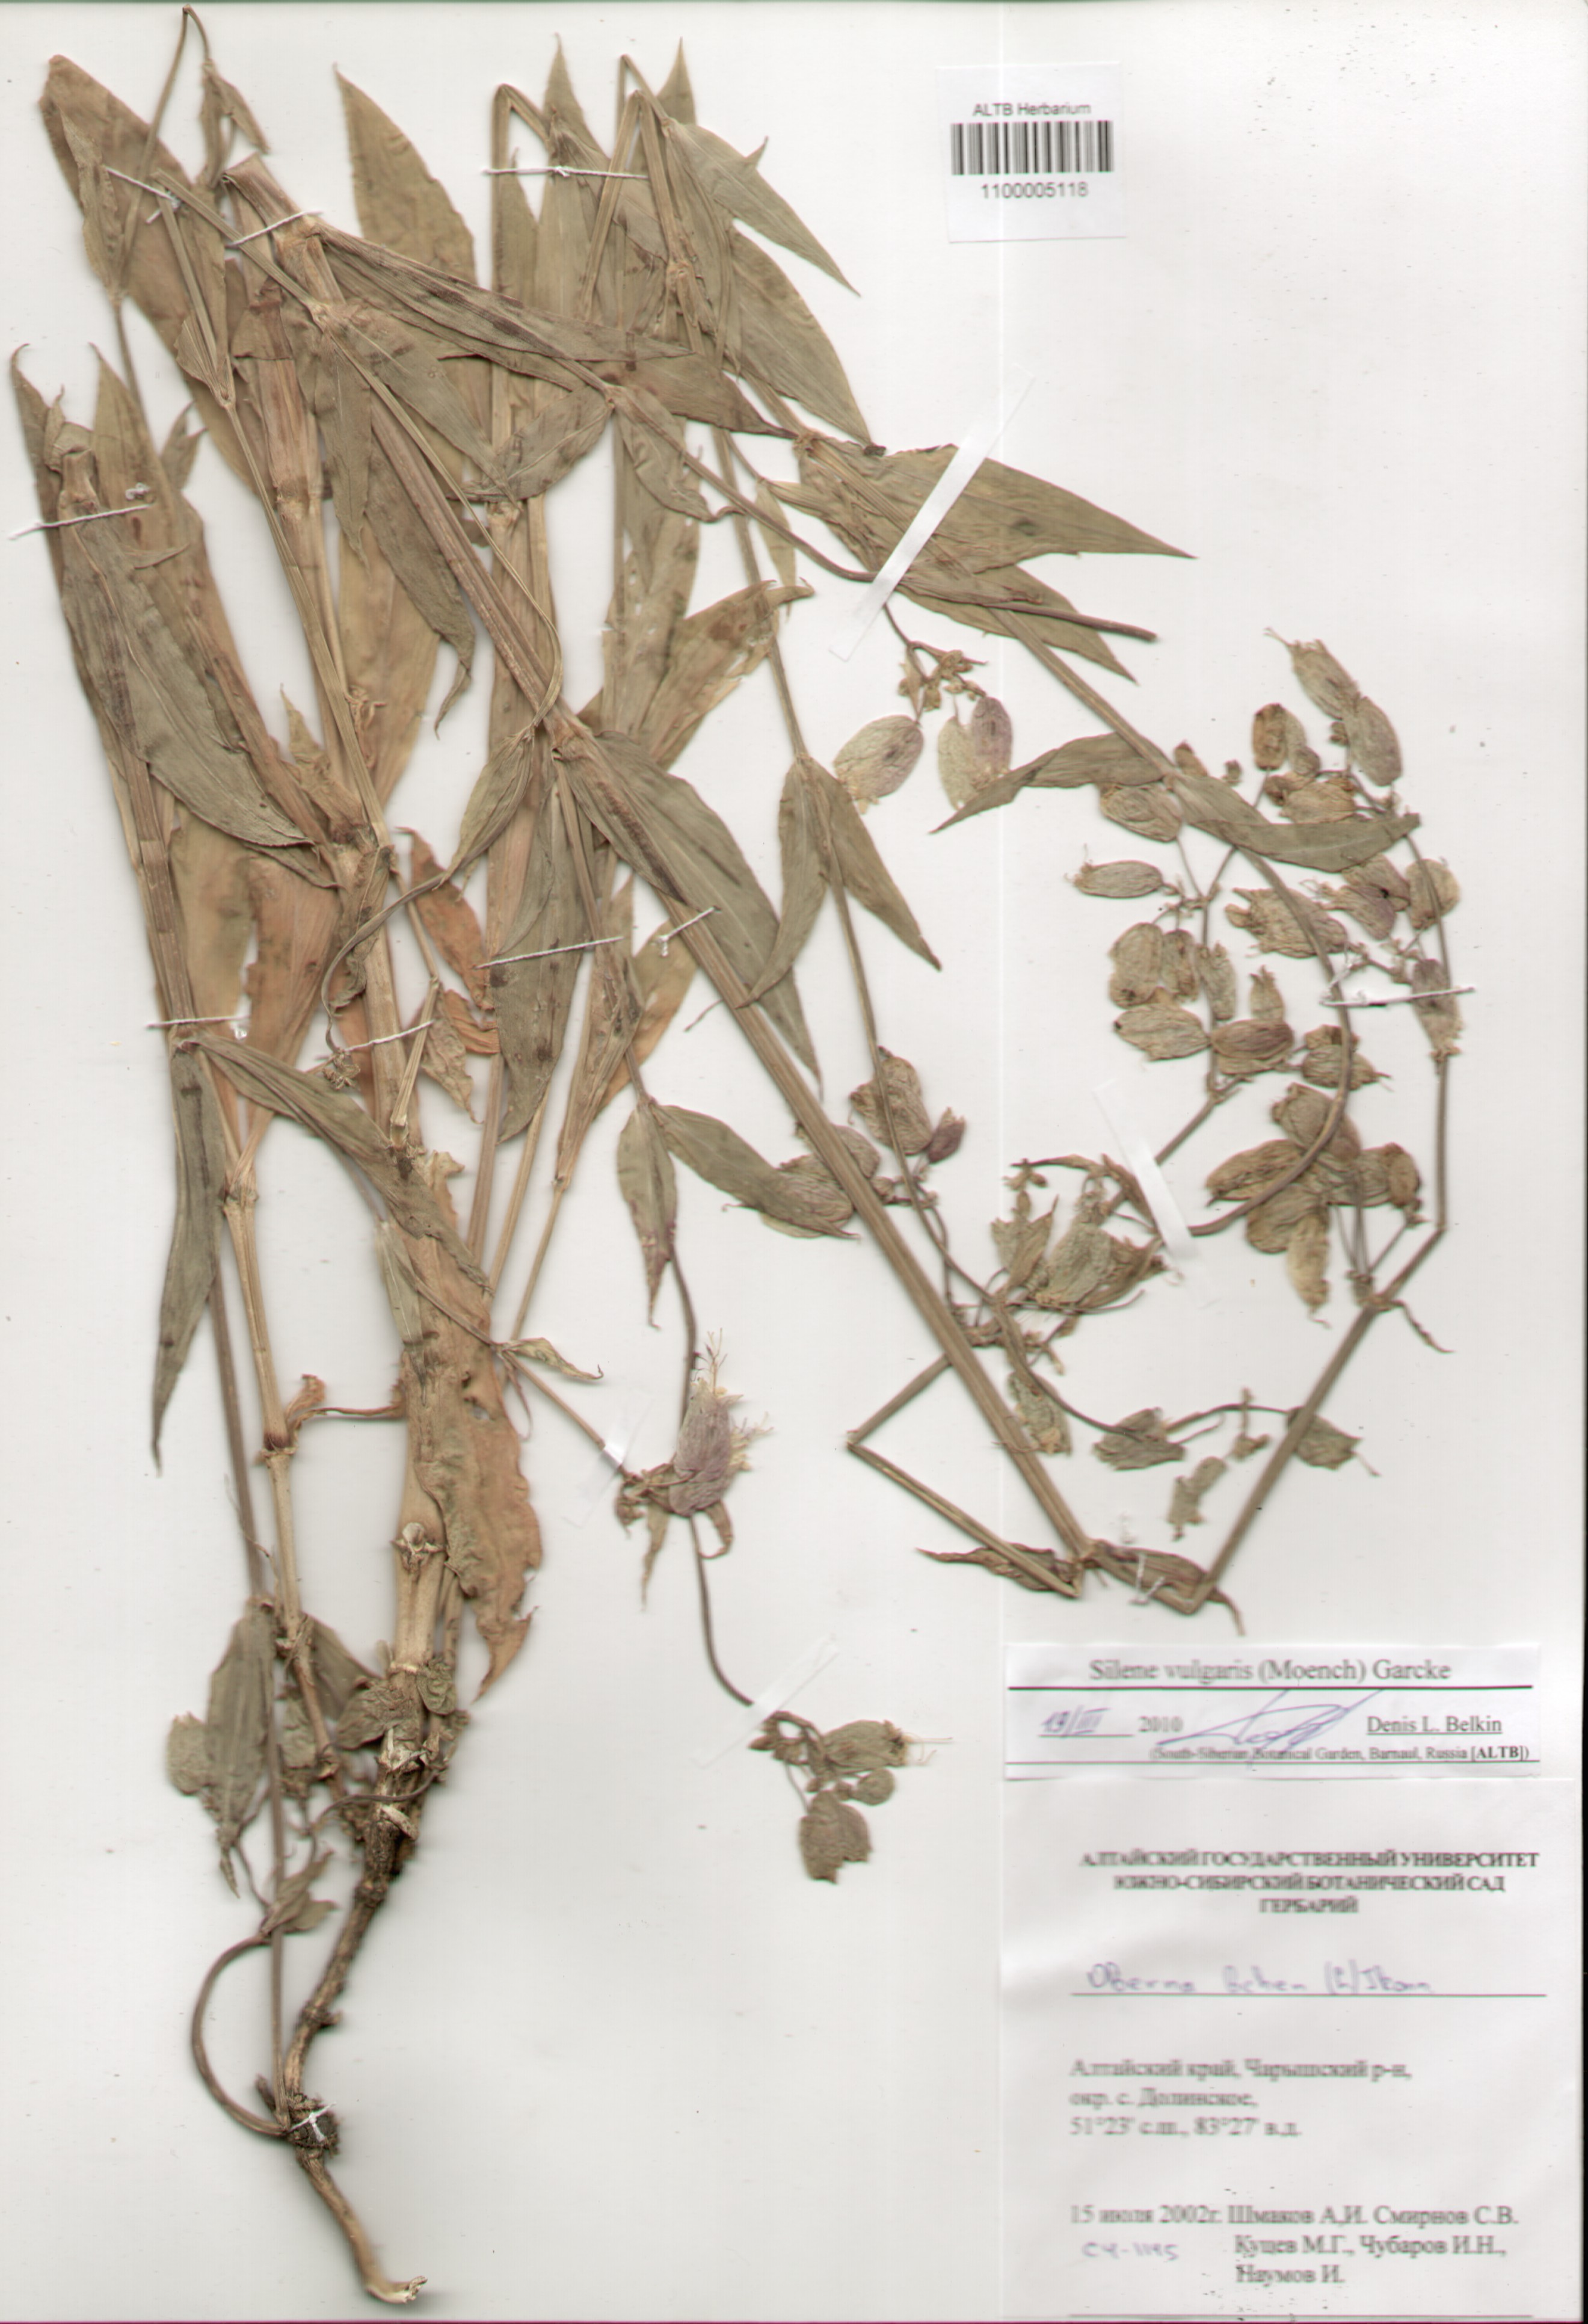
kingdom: Plantae
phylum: Tracheophyta
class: Magnoliopsida
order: Caryophyllales
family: Caryophyllaceae
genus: Silene
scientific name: Silene vulgaris
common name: Bladder campion
